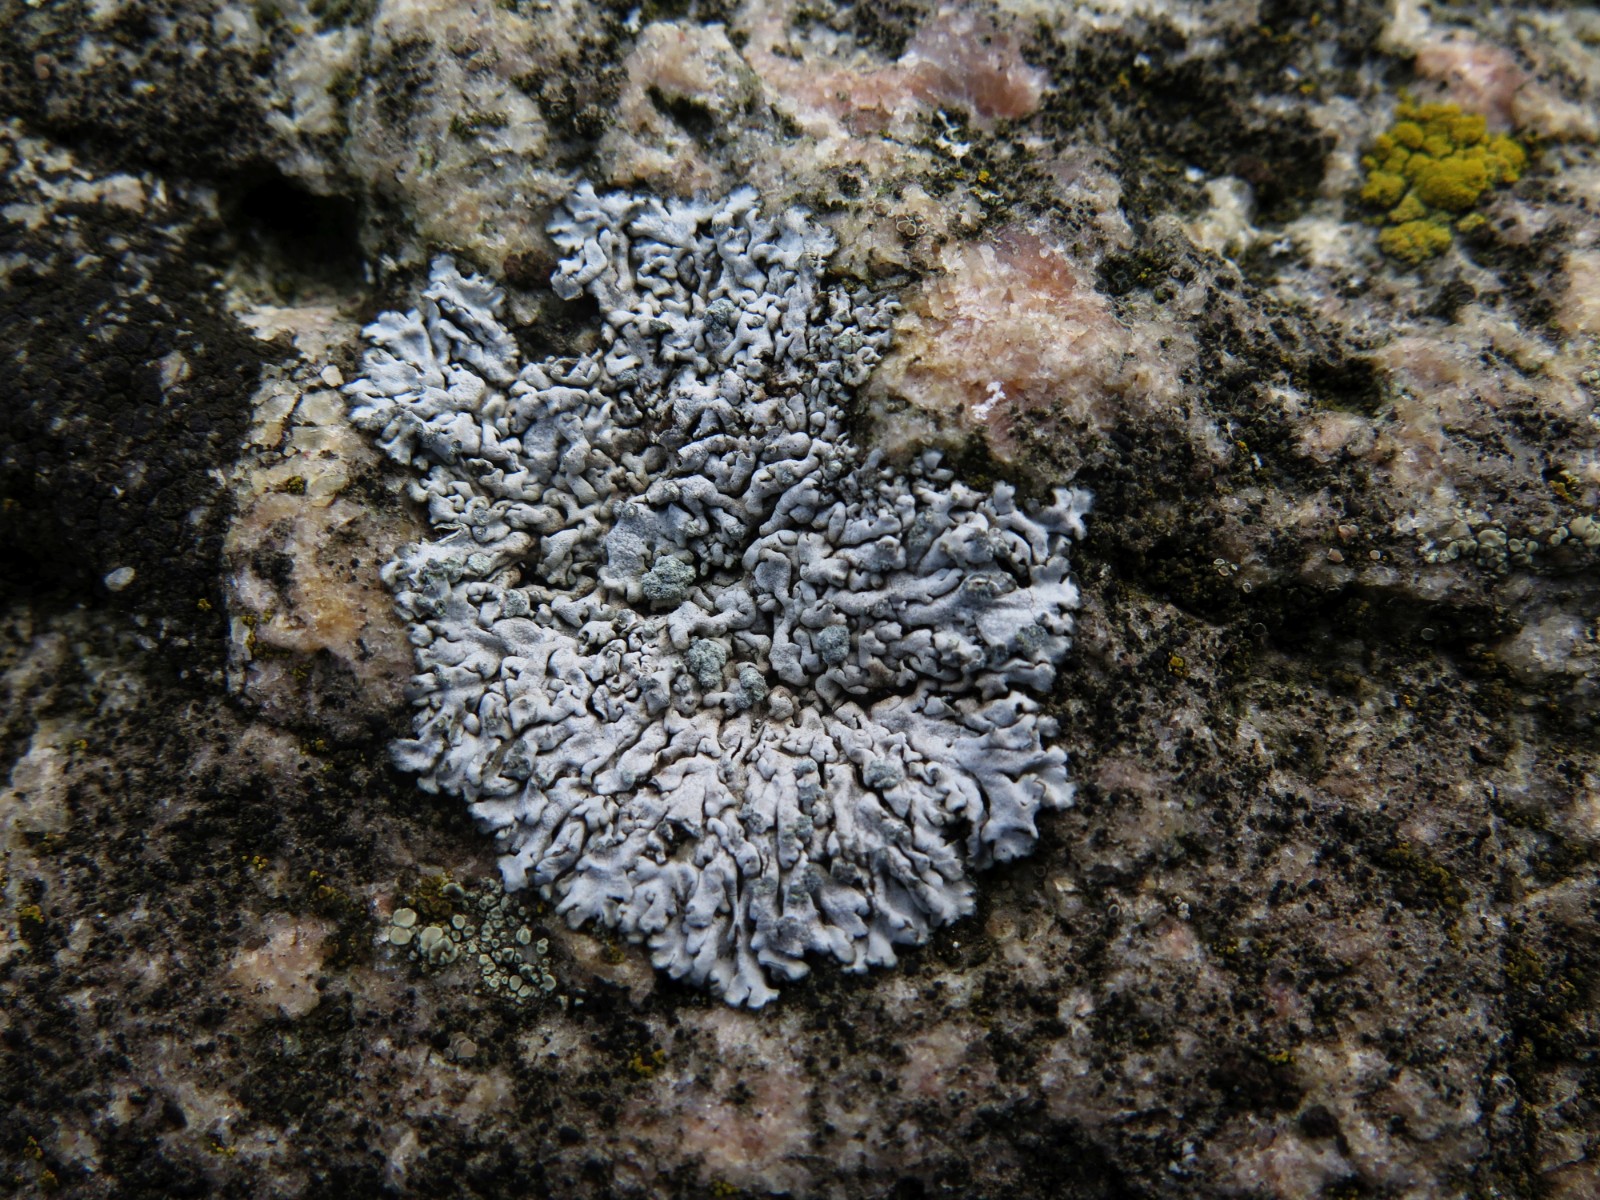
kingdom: Fungi
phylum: Ascomycota
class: Lecanoromycetes
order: Caliciales
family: Physciaceae
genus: Physcia
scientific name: Physcia caesia
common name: blågrå rosetlav
